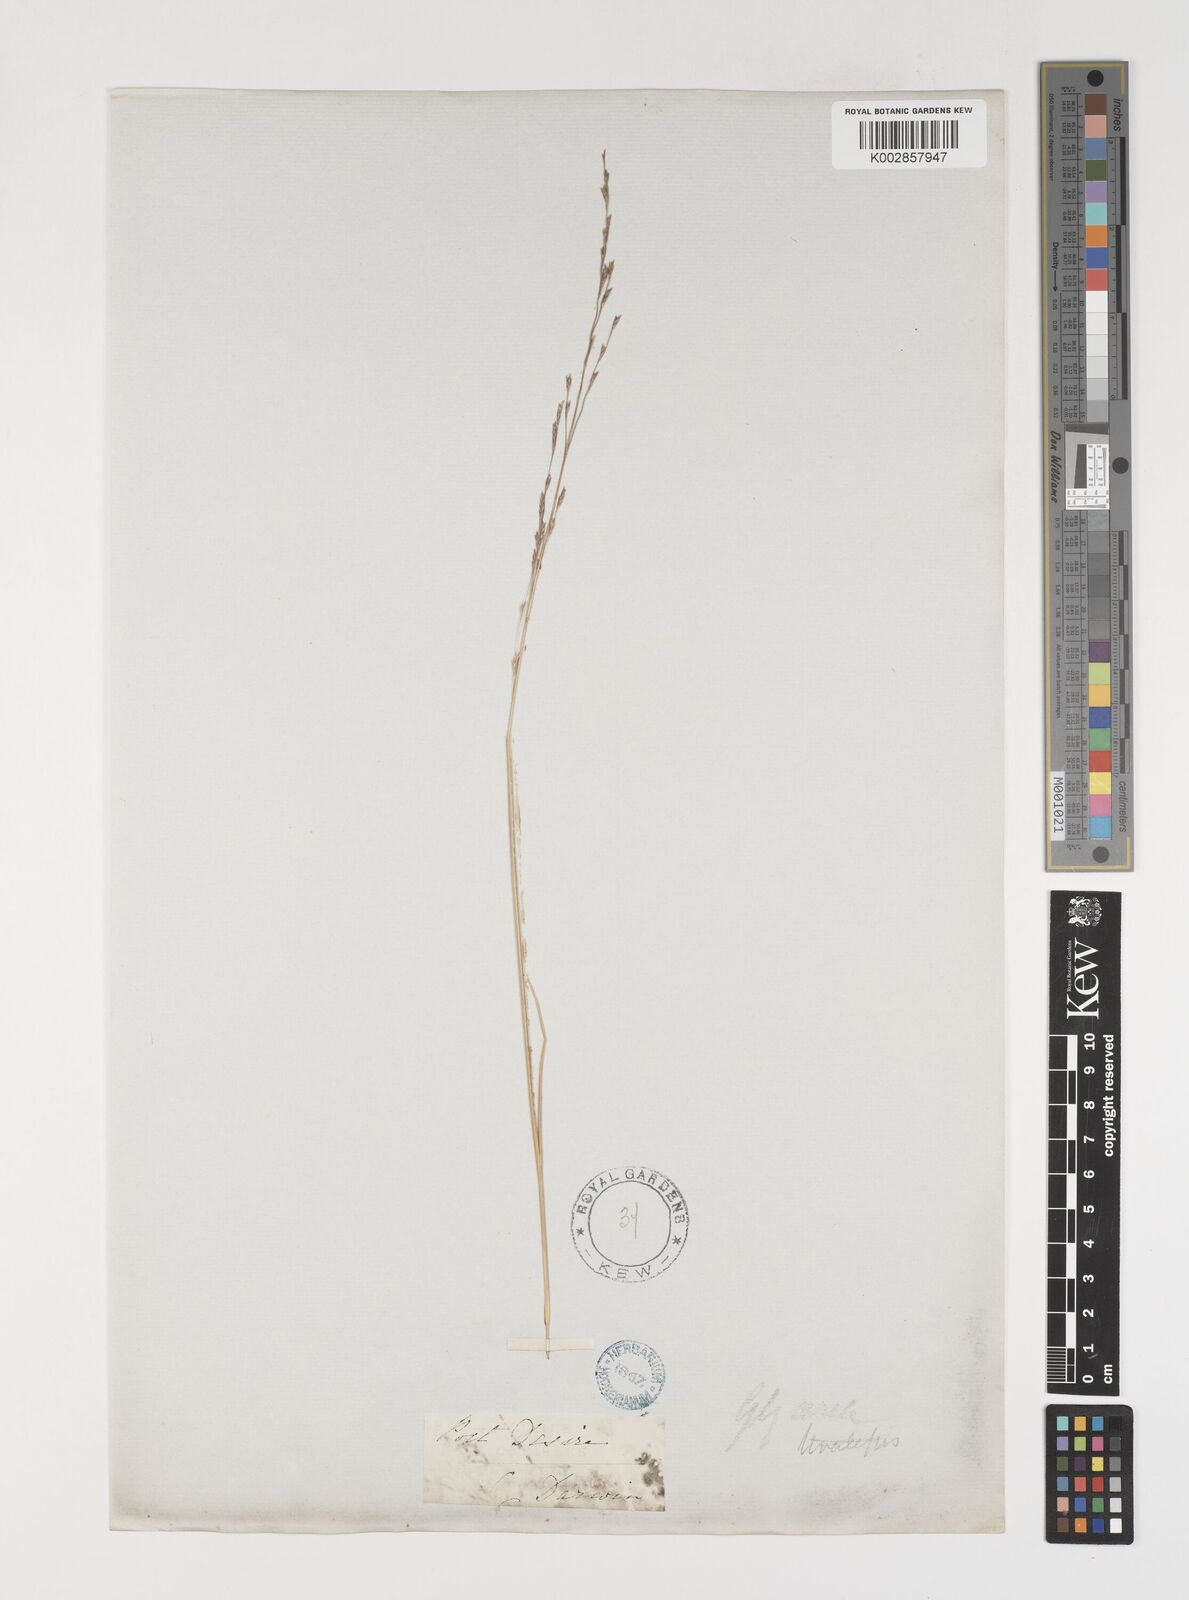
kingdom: Plantae
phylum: Tracheophyta
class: Liliopsida
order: Poales
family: Poaceae
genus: Puccinellia
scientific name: Puccinellia glaucescens
